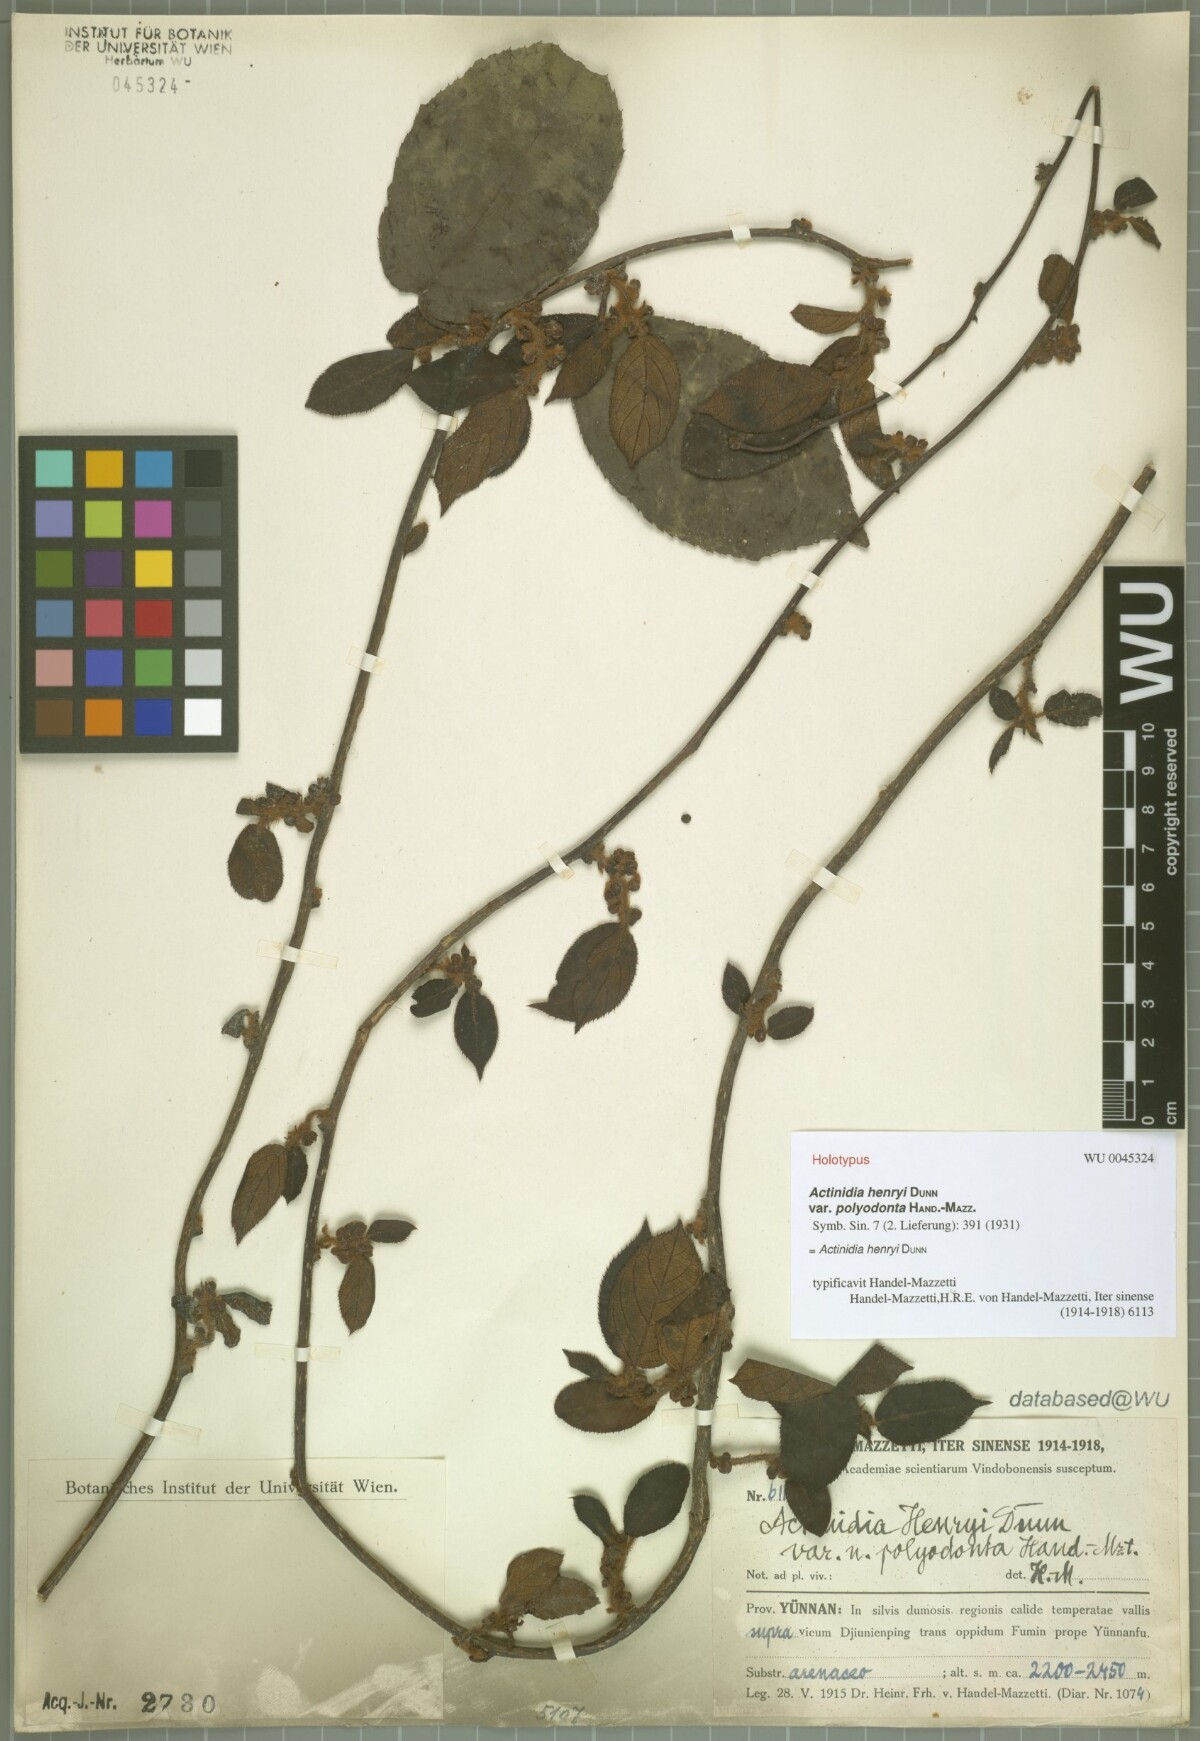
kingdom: Plantae
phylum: Tracheophyta
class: Magnoliopsida
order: Ericales
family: Actinidiaceae
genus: Actinidia
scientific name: Actinidia henryi
